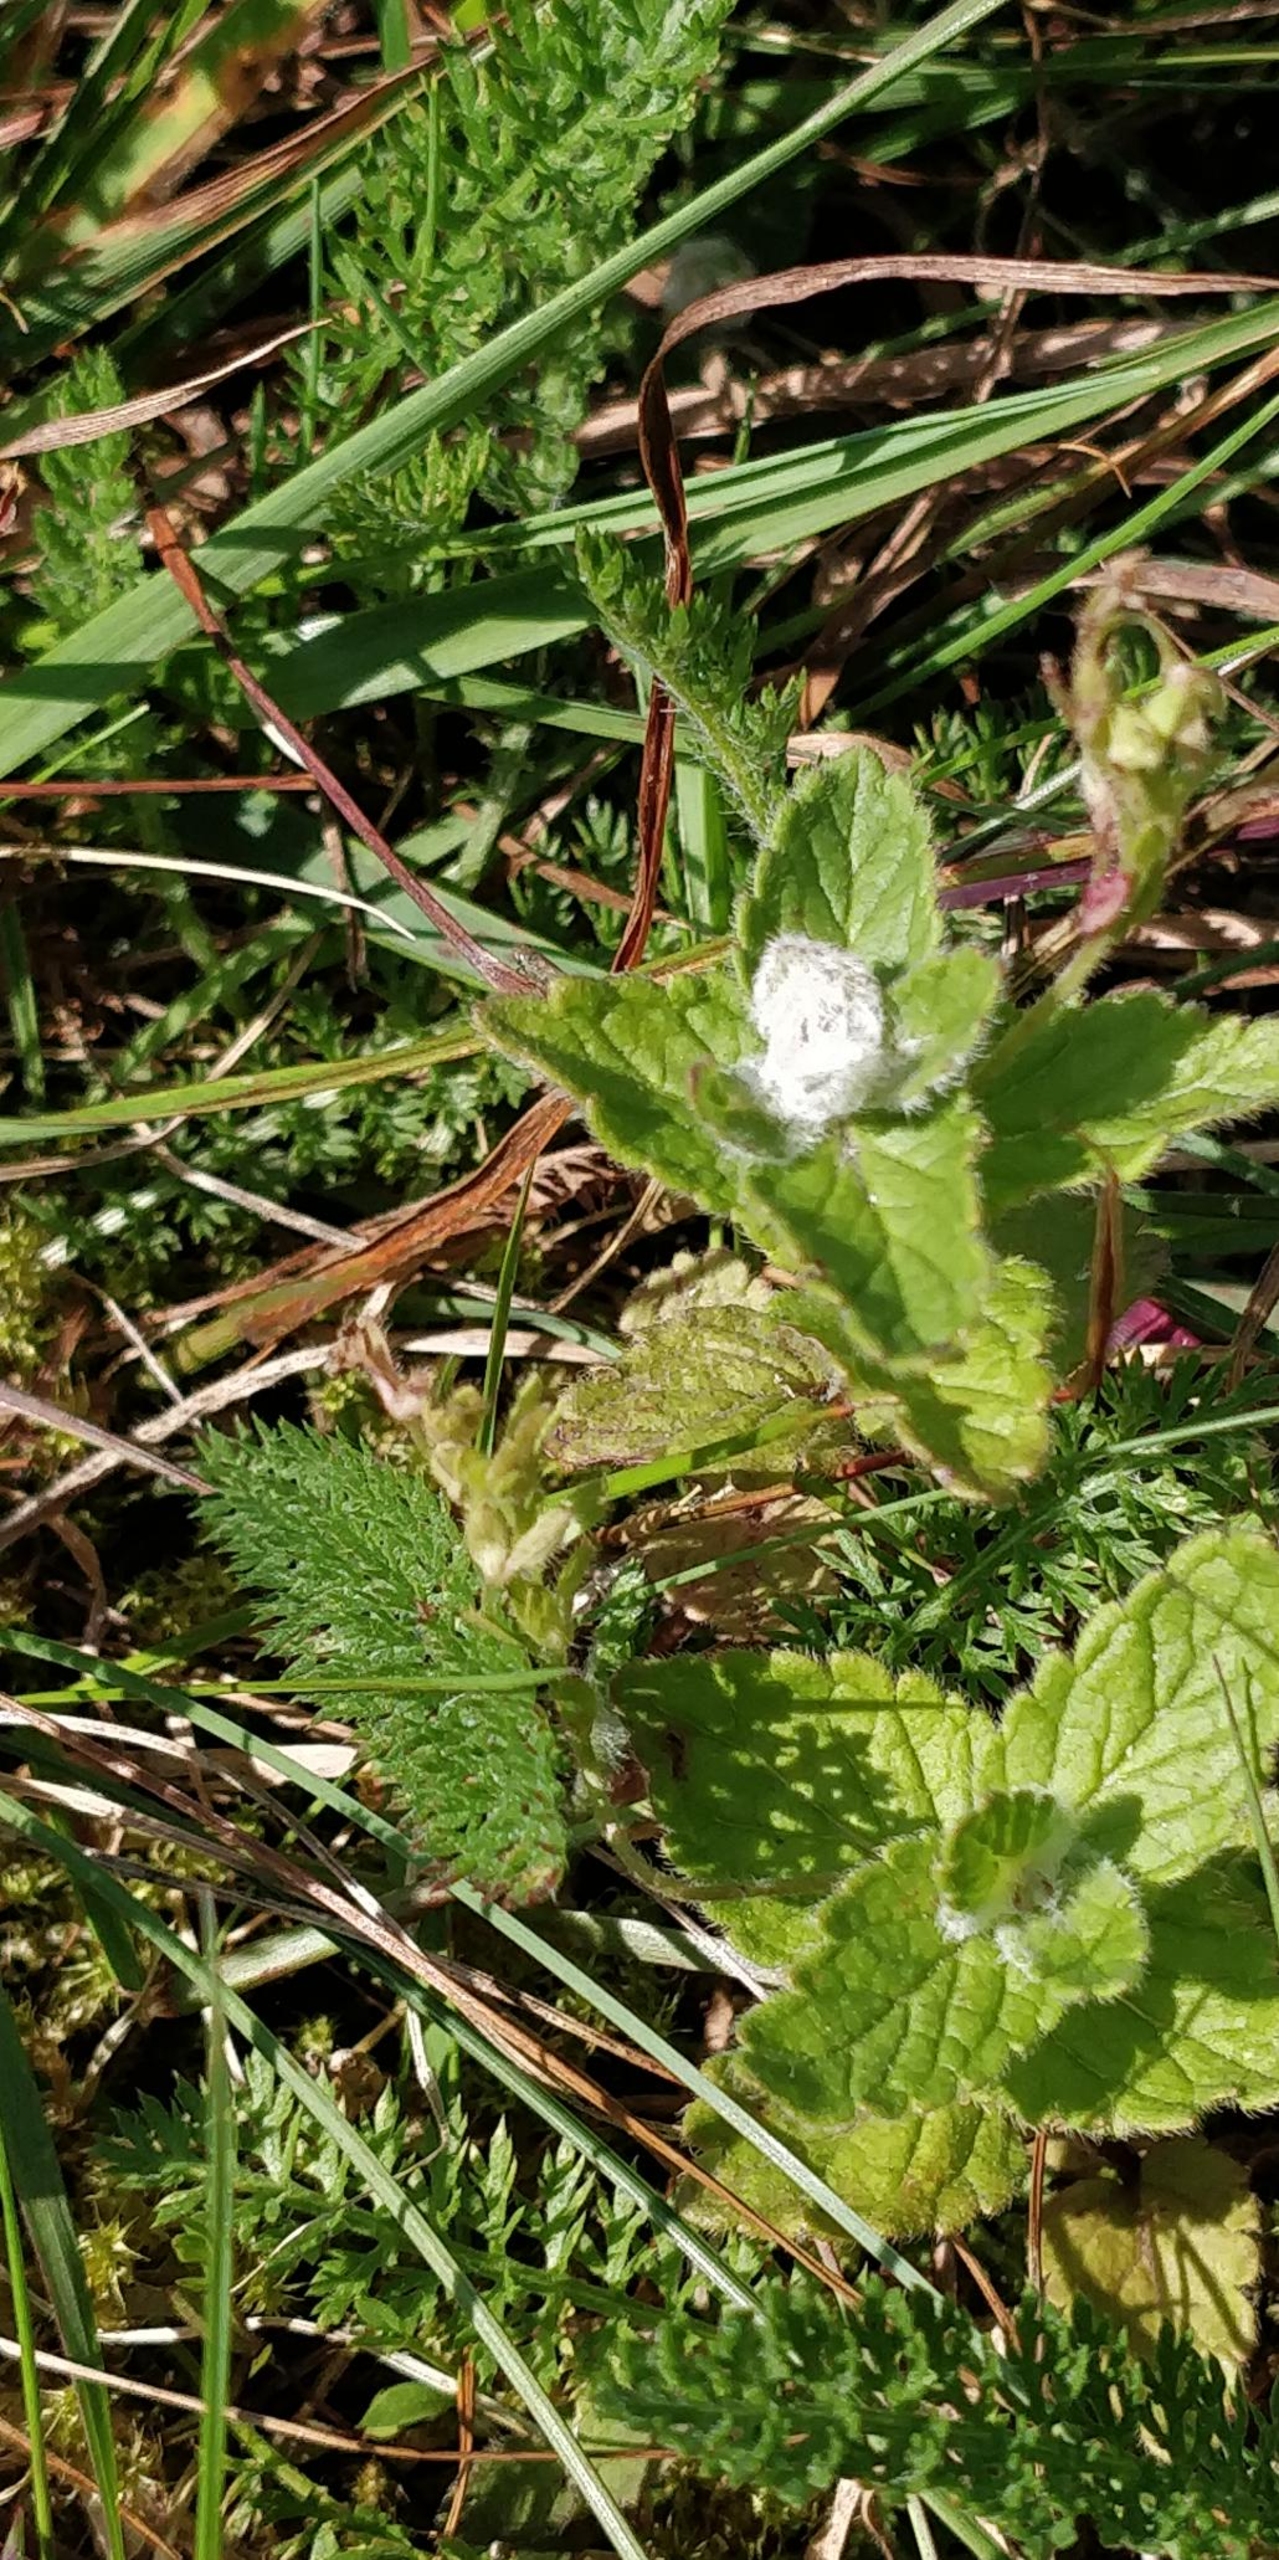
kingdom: Animalia
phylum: Arthropoda
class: Insecta
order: Diptera
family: Cecidomyiidae
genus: Jaapiella
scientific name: Jaapiella veronicae
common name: Ærenprisgalmyg
